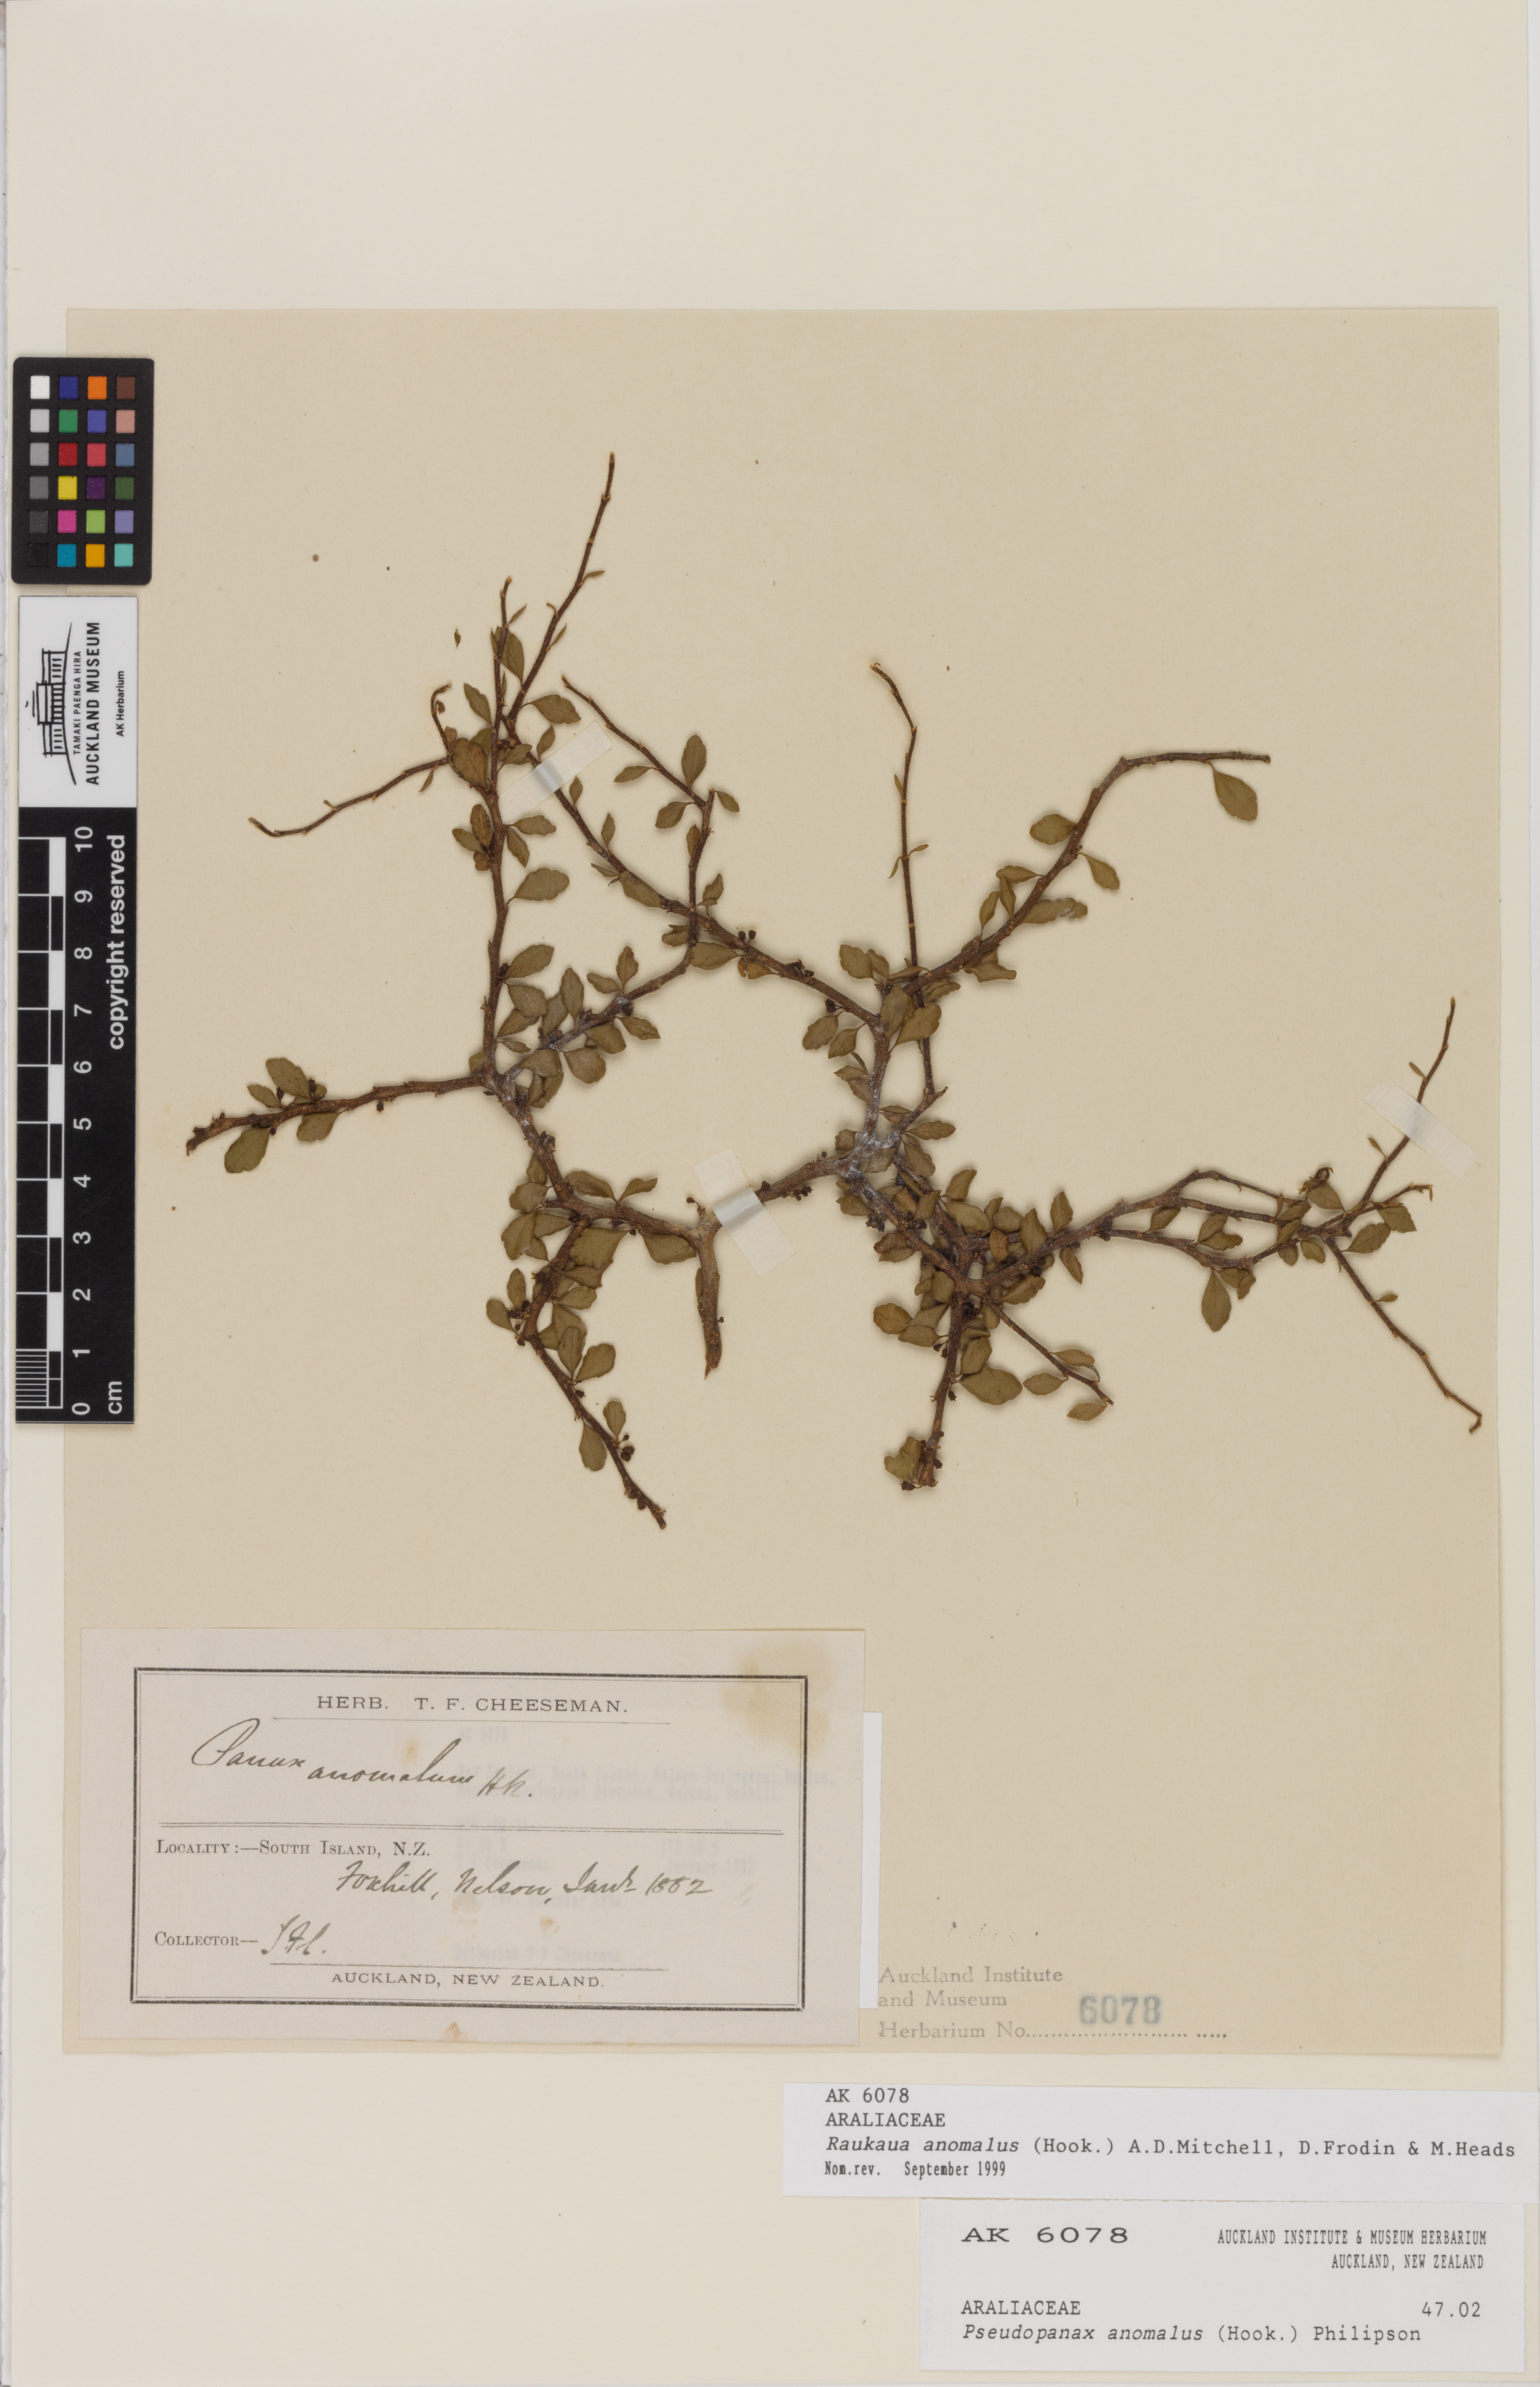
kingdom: Plantae
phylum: Tracheophyta
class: Magnoliopsida
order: Apiales
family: Araliaceae
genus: Raukaua
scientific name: Raukaua anomalus
